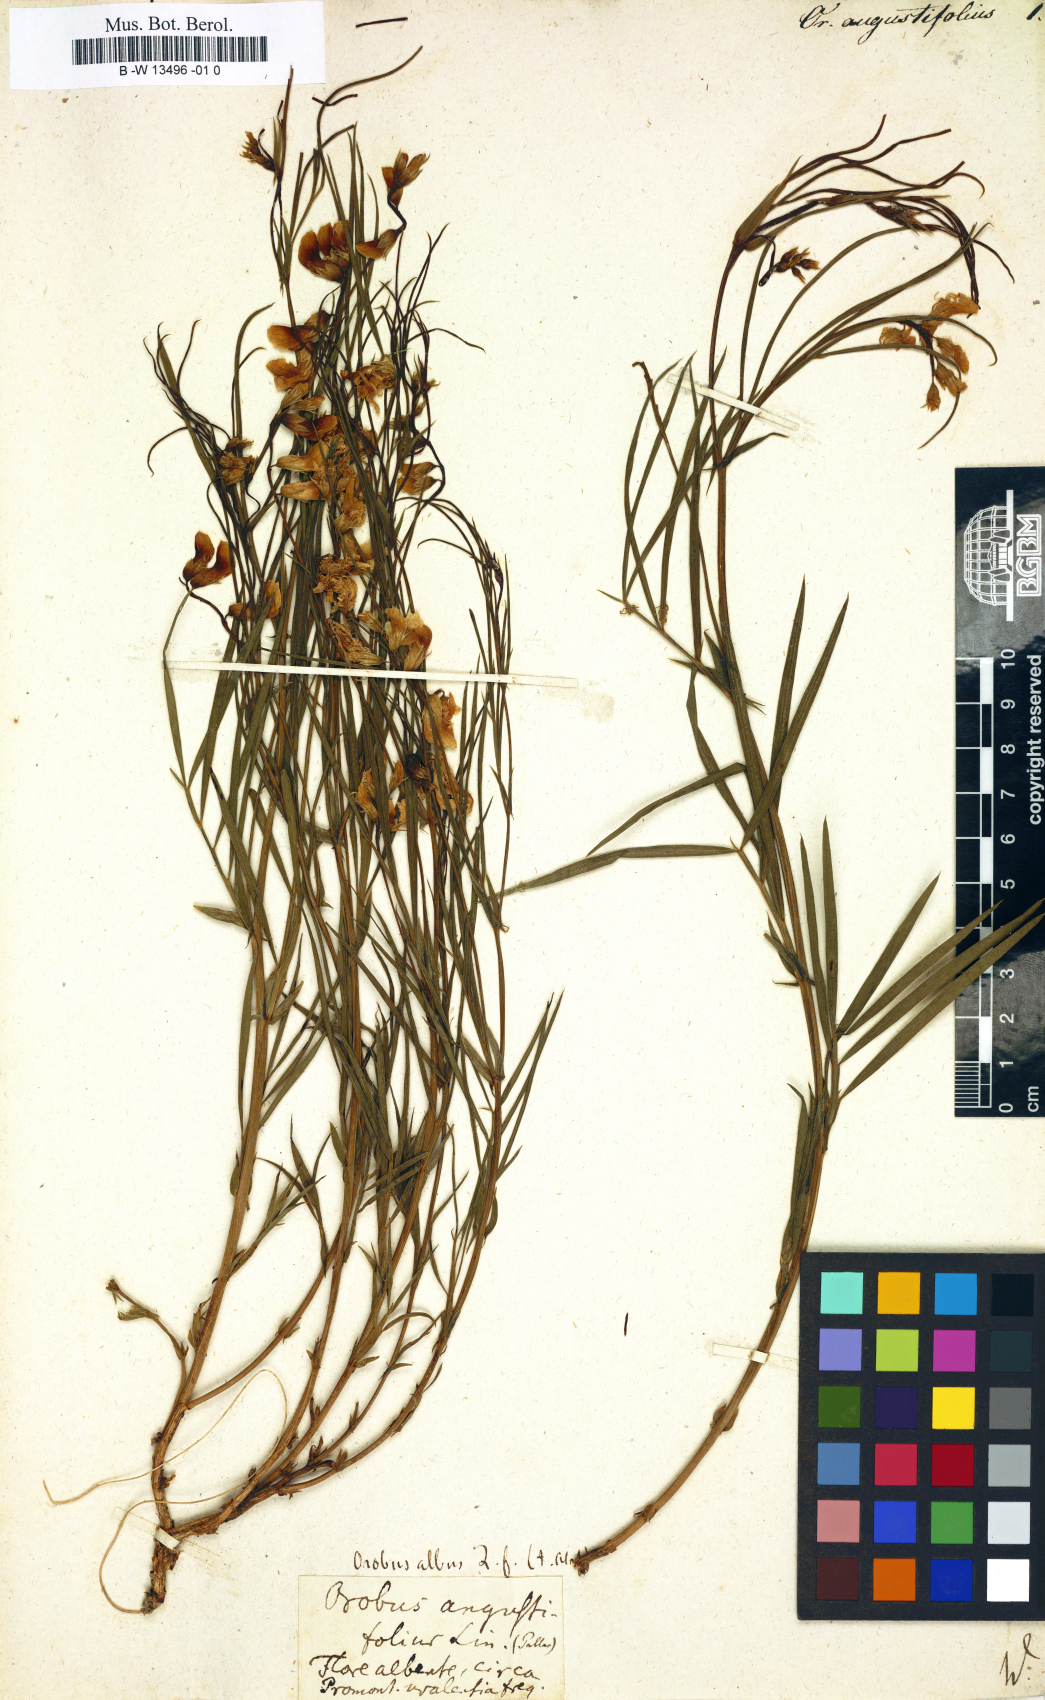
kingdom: Plantae
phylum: Tracheophyta
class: Magnoliopsida
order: Fabales
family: Fabaceae
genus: Lathyrus
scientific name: Lathyrus
